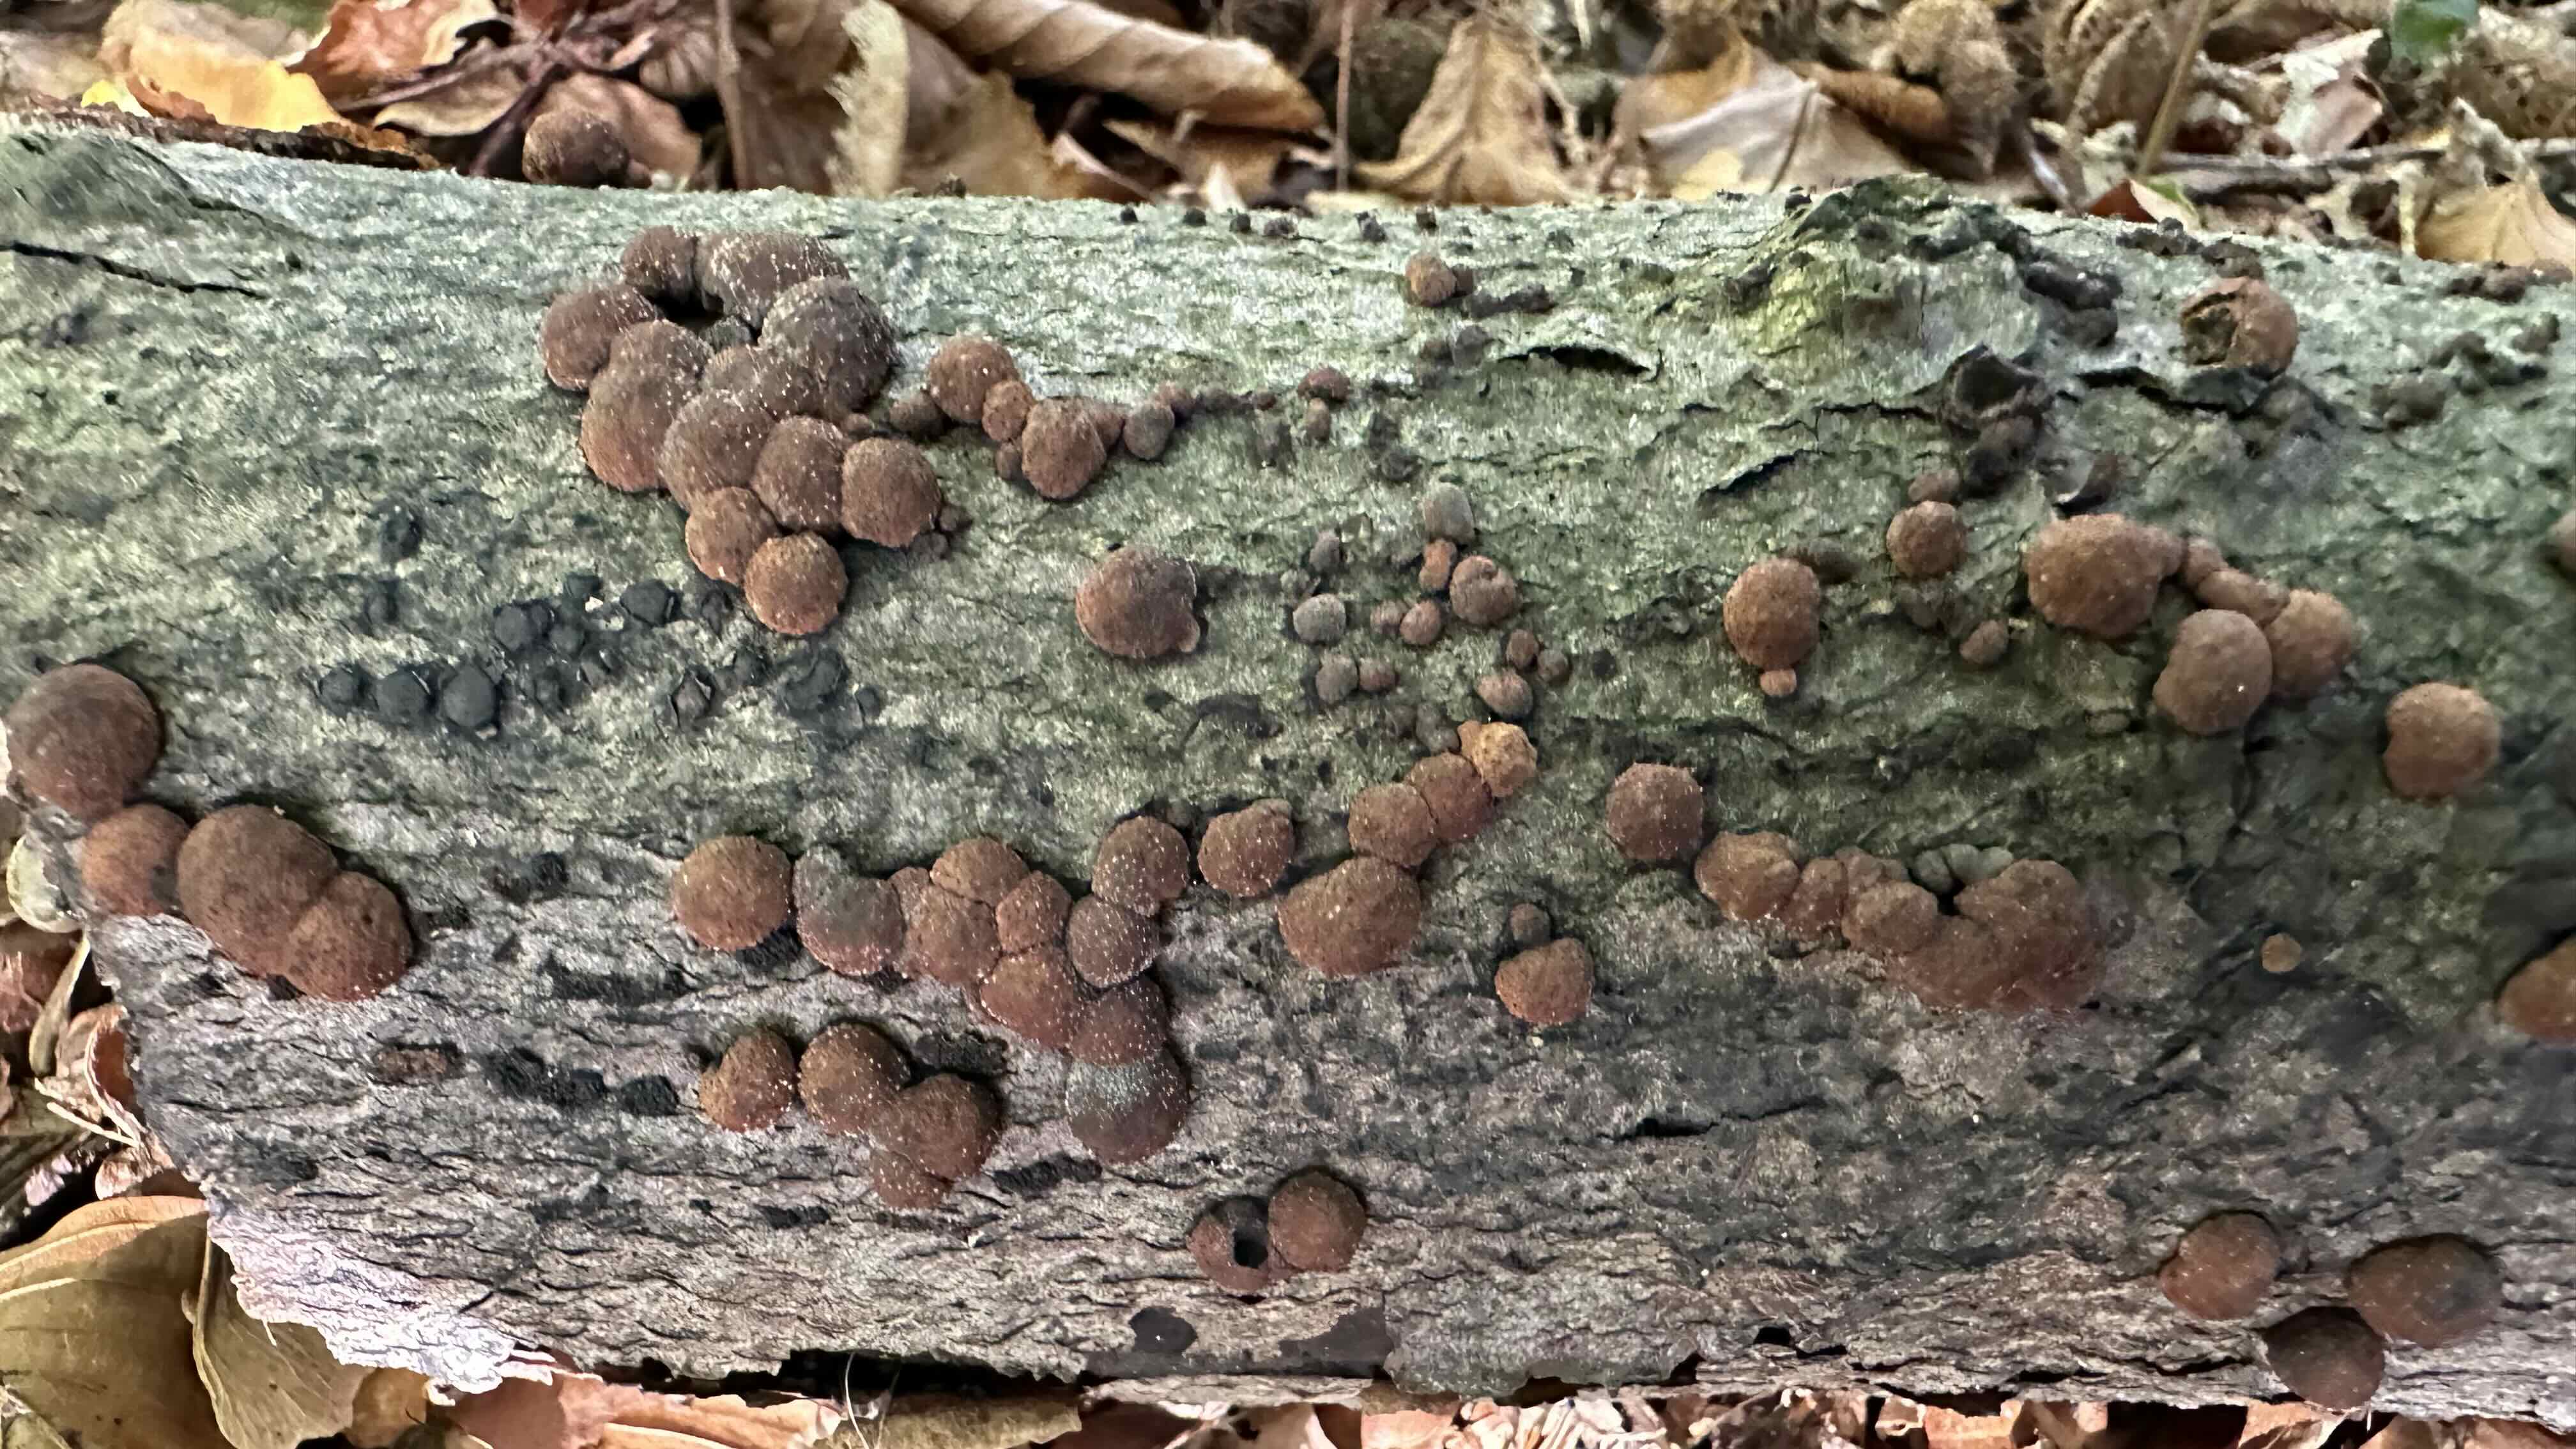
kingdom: Fungi
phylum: Ascomycota
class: Sordariomycetes
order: Xylariales
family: Hypoxylaceae
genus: Hypoxylon
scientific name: Hypoxylon fragiforme
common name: kuljordbær
